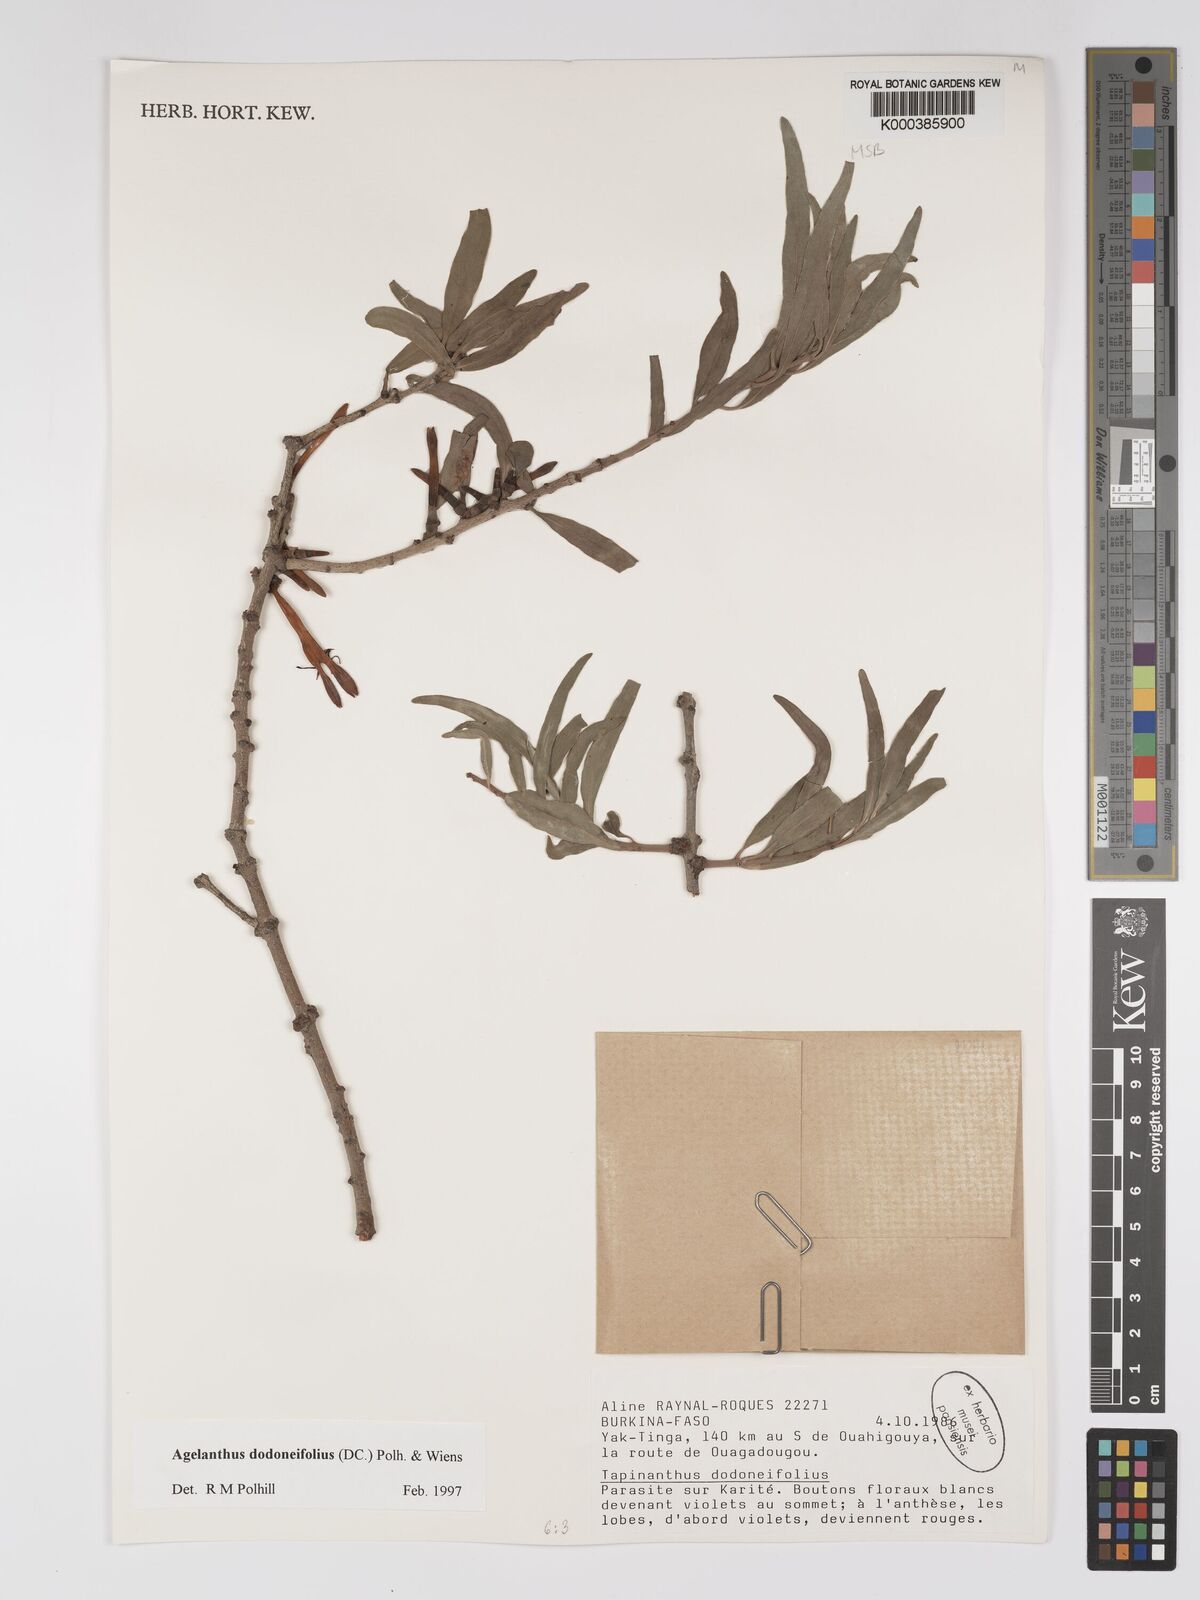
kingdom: Plantae
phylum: Tracheophyta
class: Magnoliopsida
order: Santalales
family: Loranthaceae
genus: Agelanthus
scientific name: Agelanthus dodoneifolius
